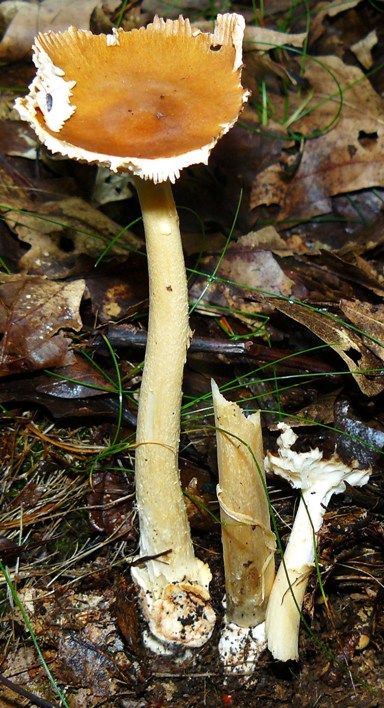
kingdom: Fungi
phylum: Basidiomycota
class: Agaricomycetes
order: Agaricales
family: Amanitaceae
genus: Amanita
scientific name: Amanita fulva
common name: brun kam-fluesvamp
